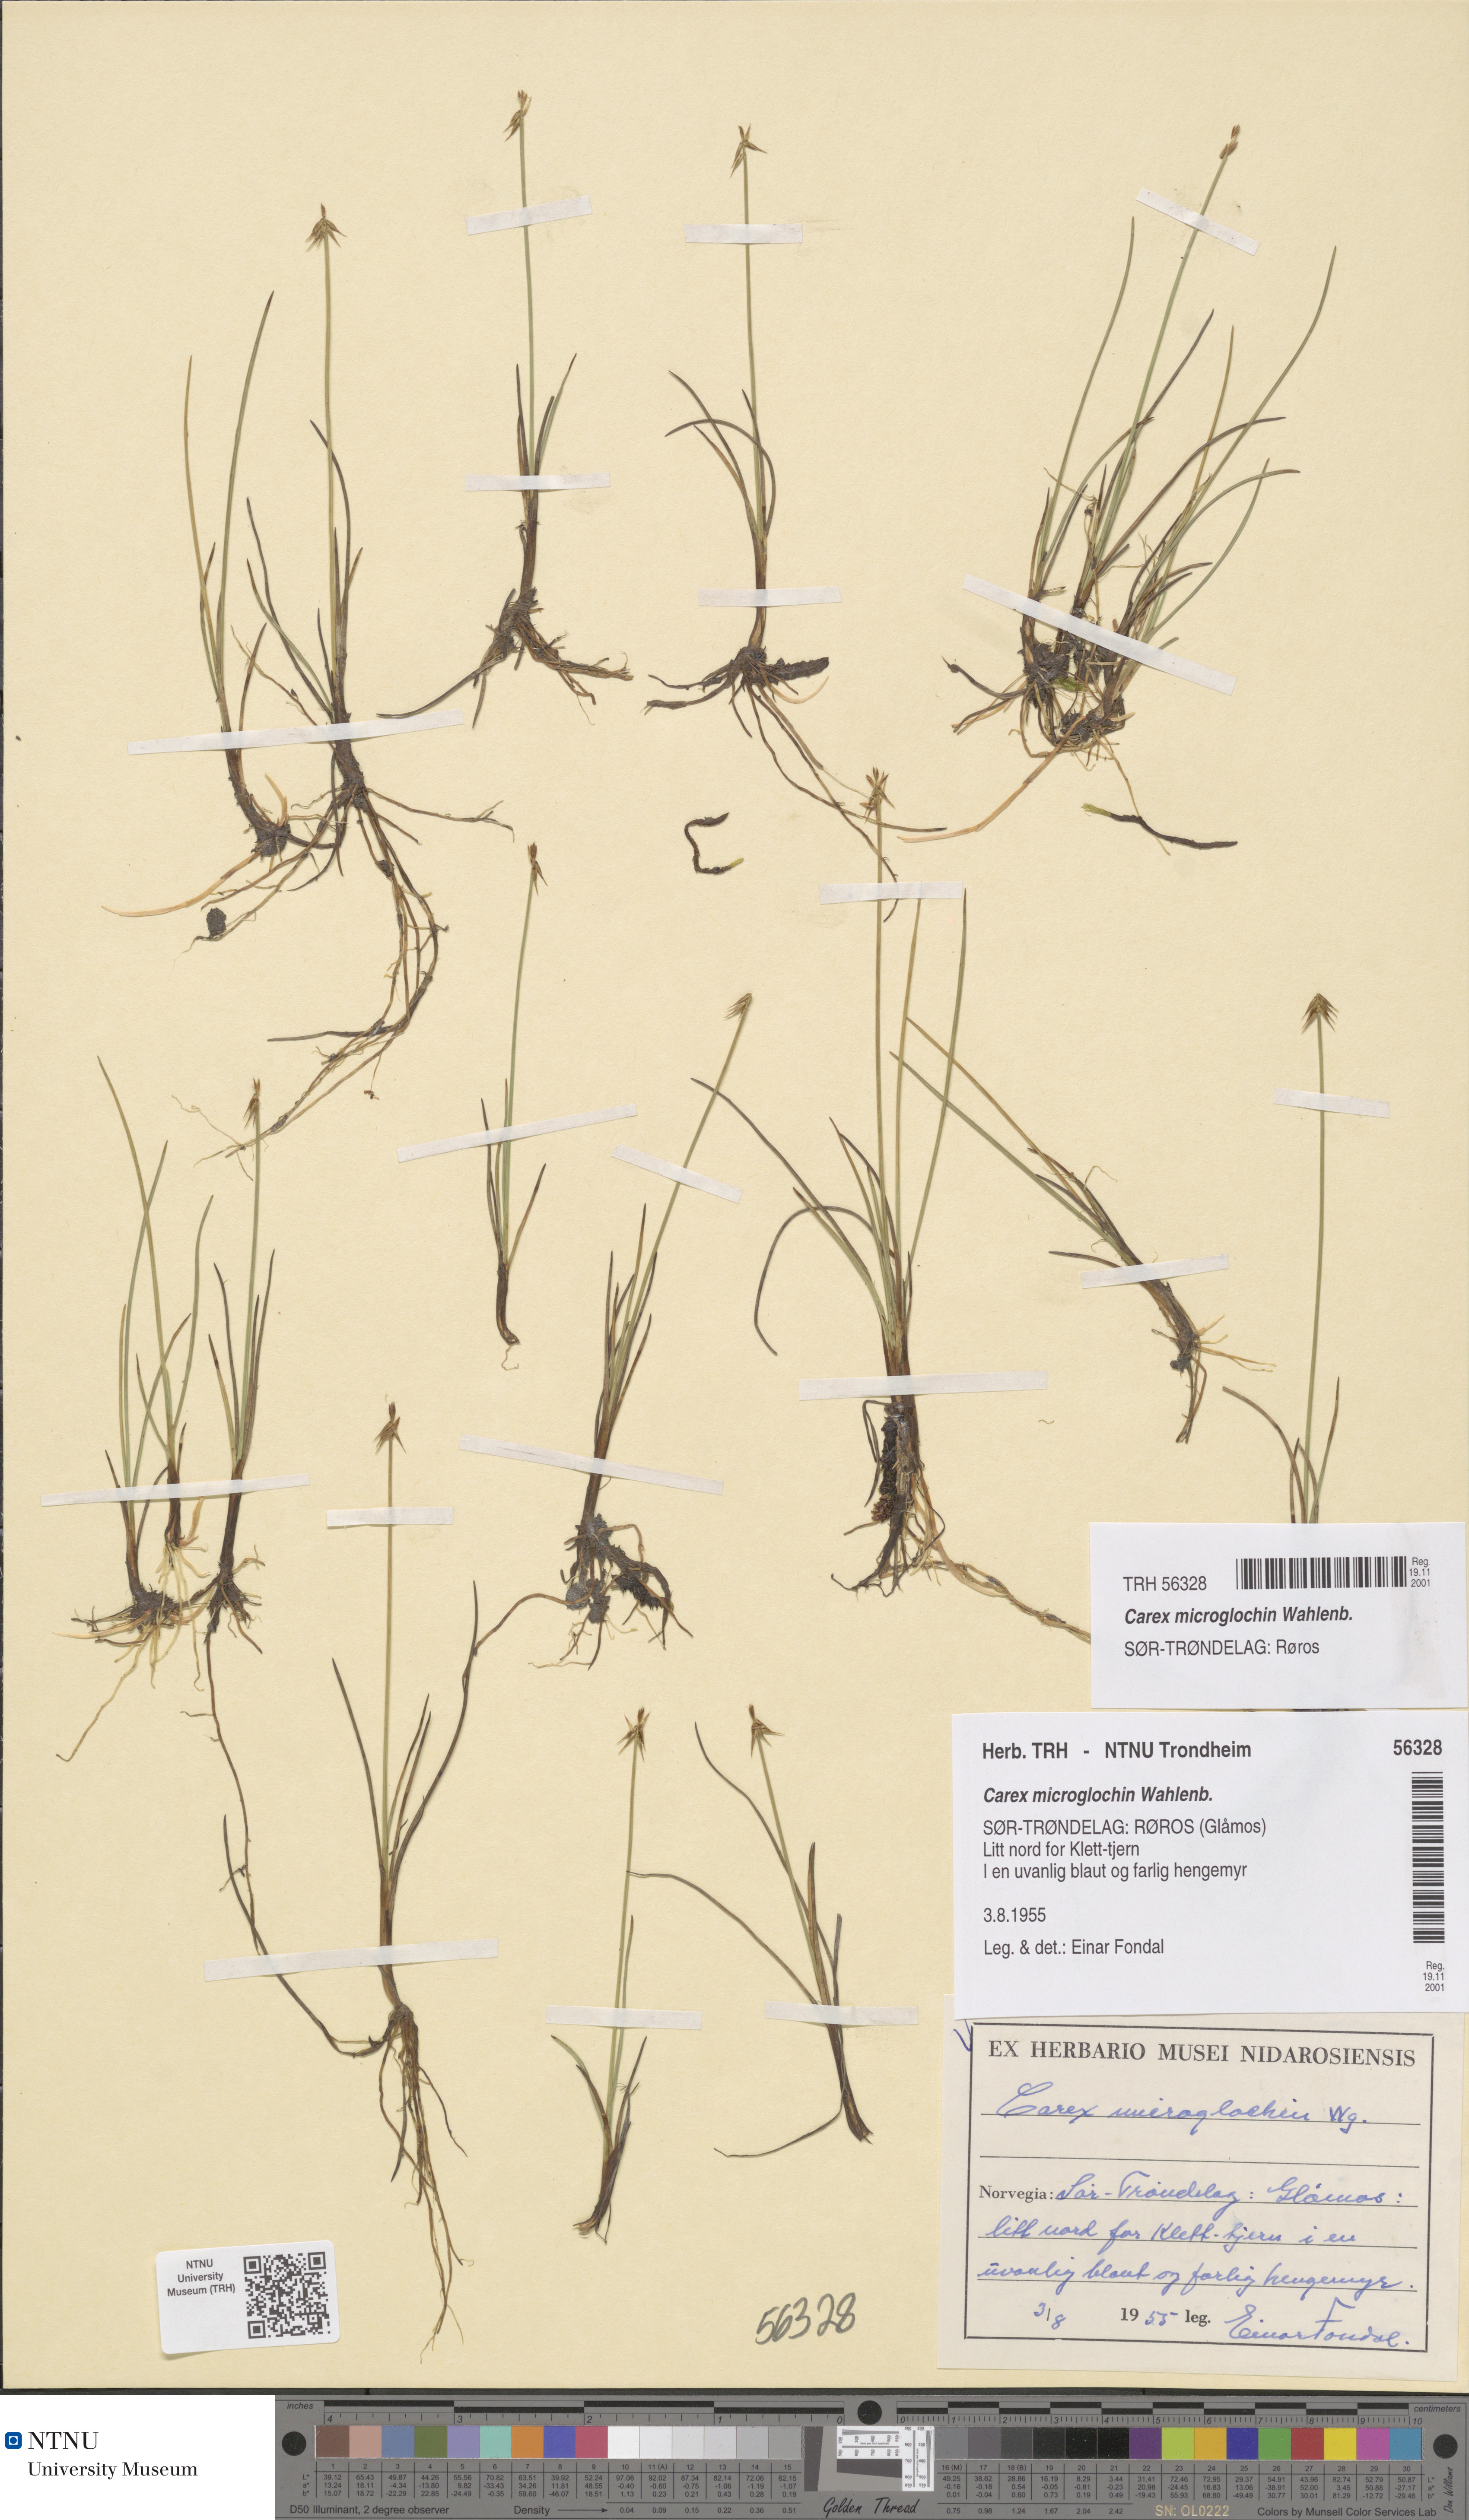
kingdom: Plantae
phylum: Tracheophyta
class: Liliopsida
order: Poales
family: Cyperaceae
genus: Carex
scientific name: Carex microglochin
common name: Bristle sedge
